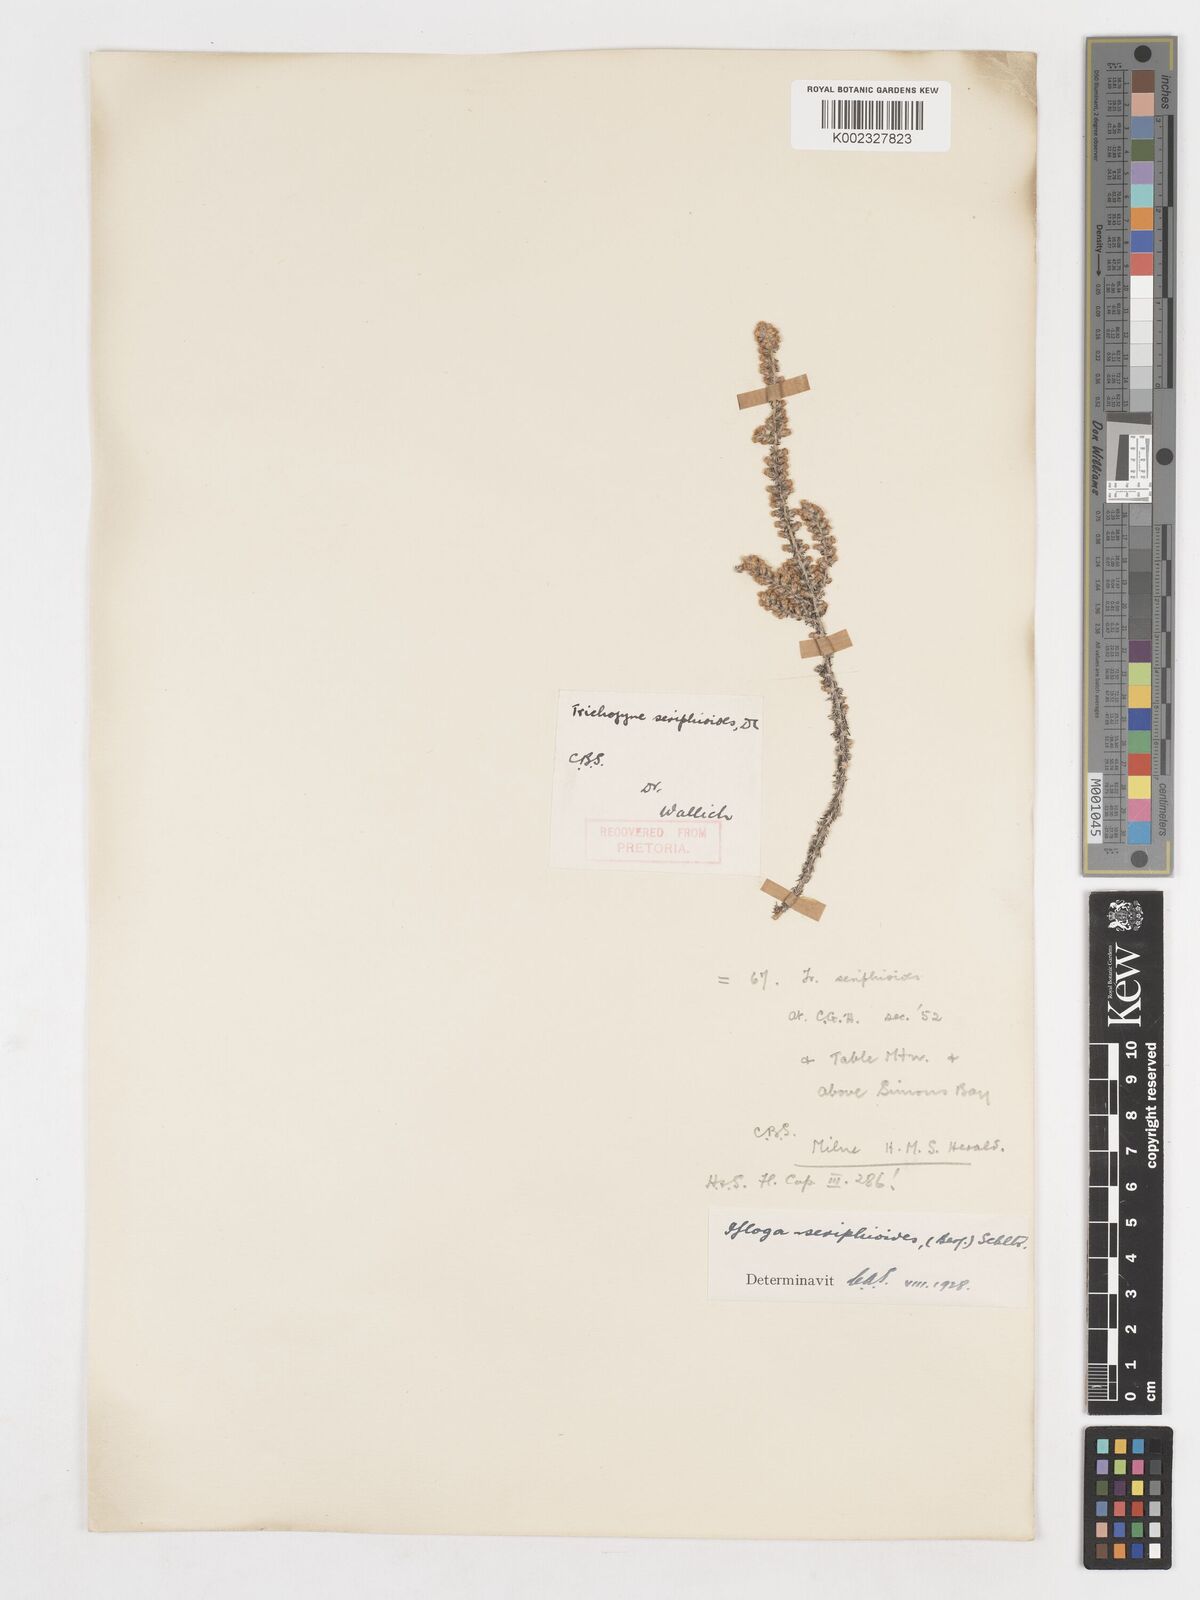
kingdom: Plantae
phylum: Tracheophyta
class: Magnoliopsida
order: Asterales
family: Asteraceae
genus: Ifloga
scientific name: Ifloga ambigua
